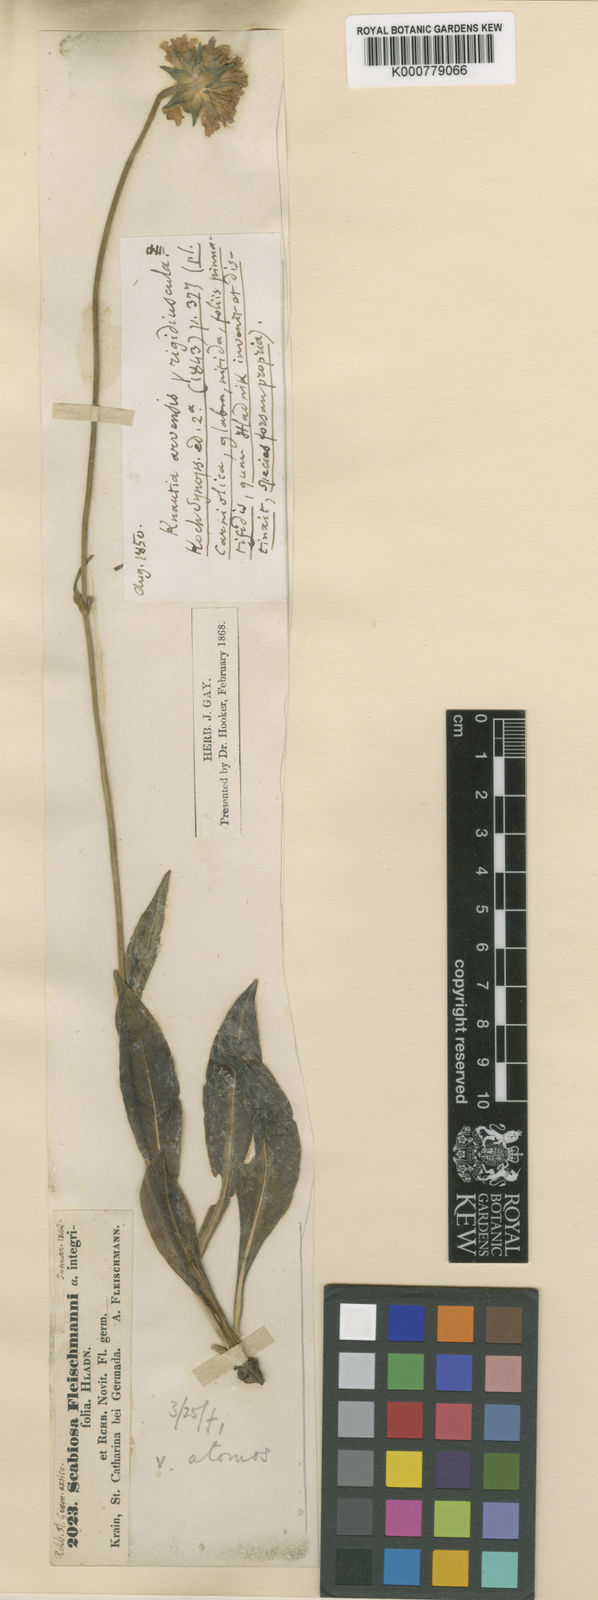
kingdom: Plantae
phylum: Tracheophyta
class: Magnoliopsida
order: Dipsacales
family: Caprifoliaceae
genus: Knautia
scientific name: Knautia fleischmannii
